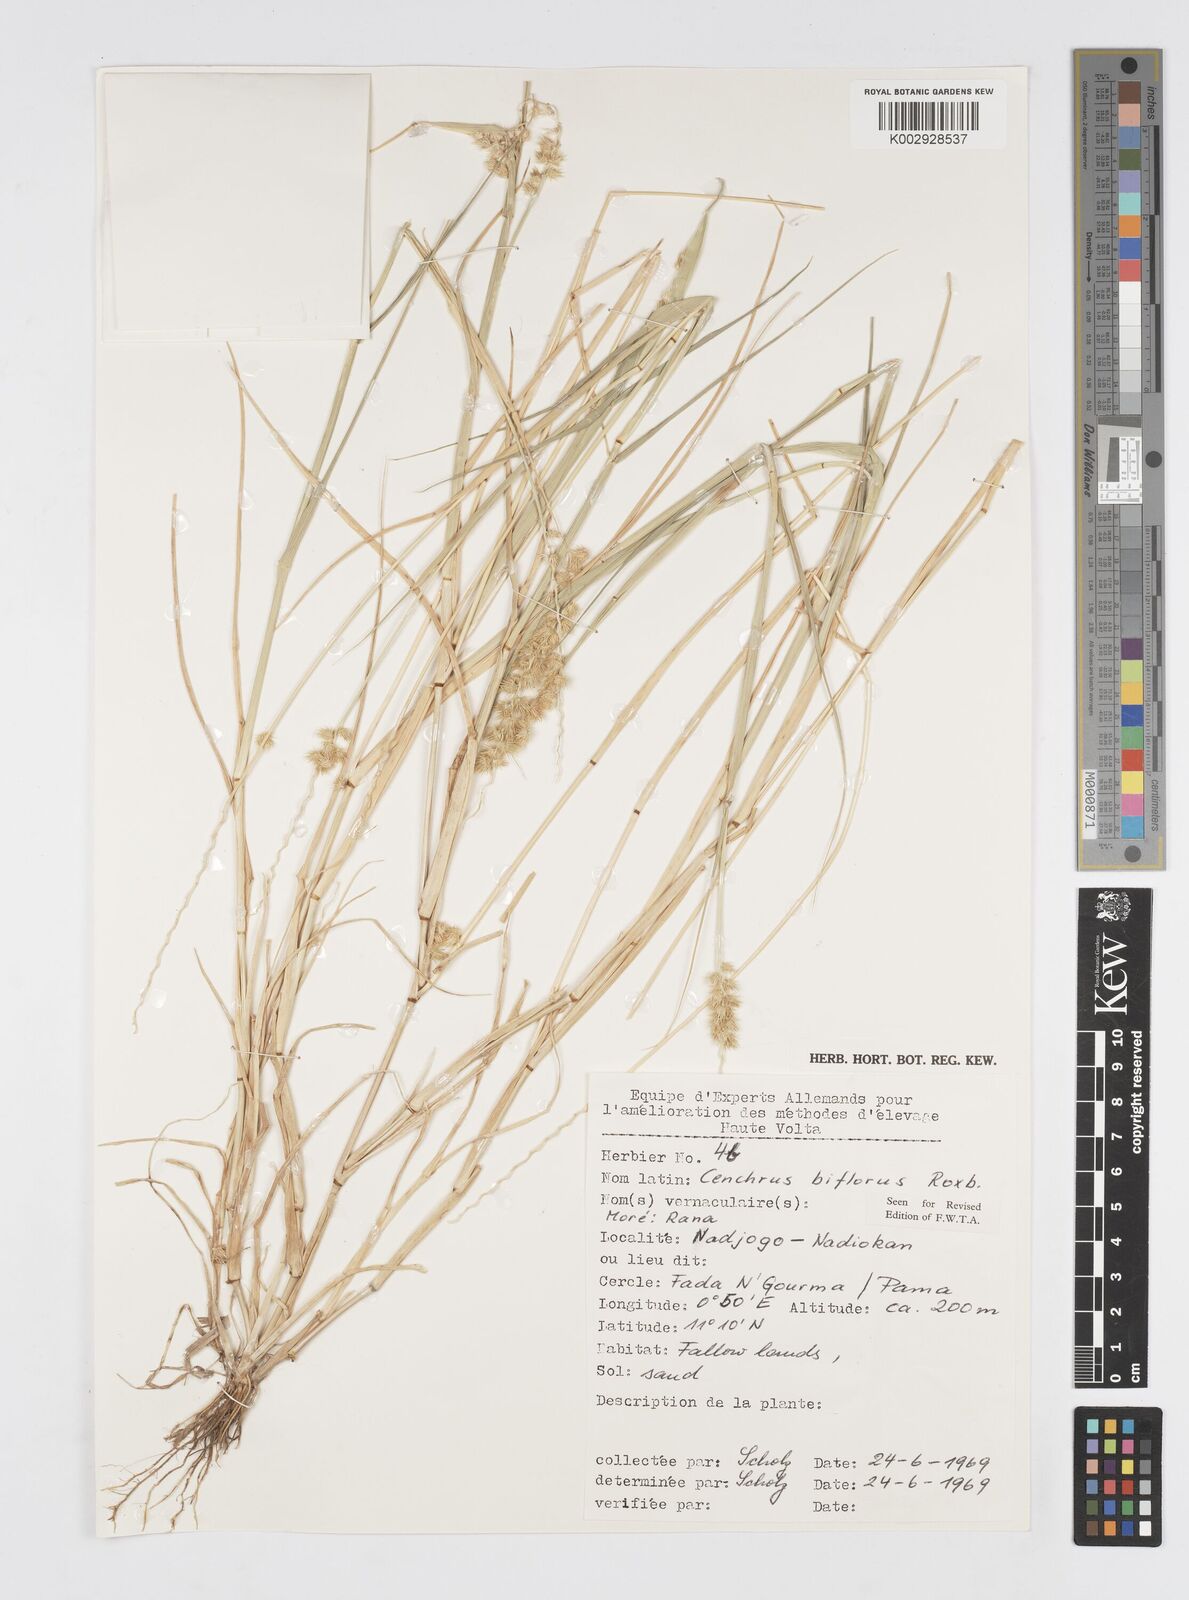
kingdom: Plantae
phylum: Tracheophyta
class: Liliopsida
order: Poales
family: Poaceae
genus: Cenchrus
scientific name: Cenchrus biflorus
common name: Indian sandbur
